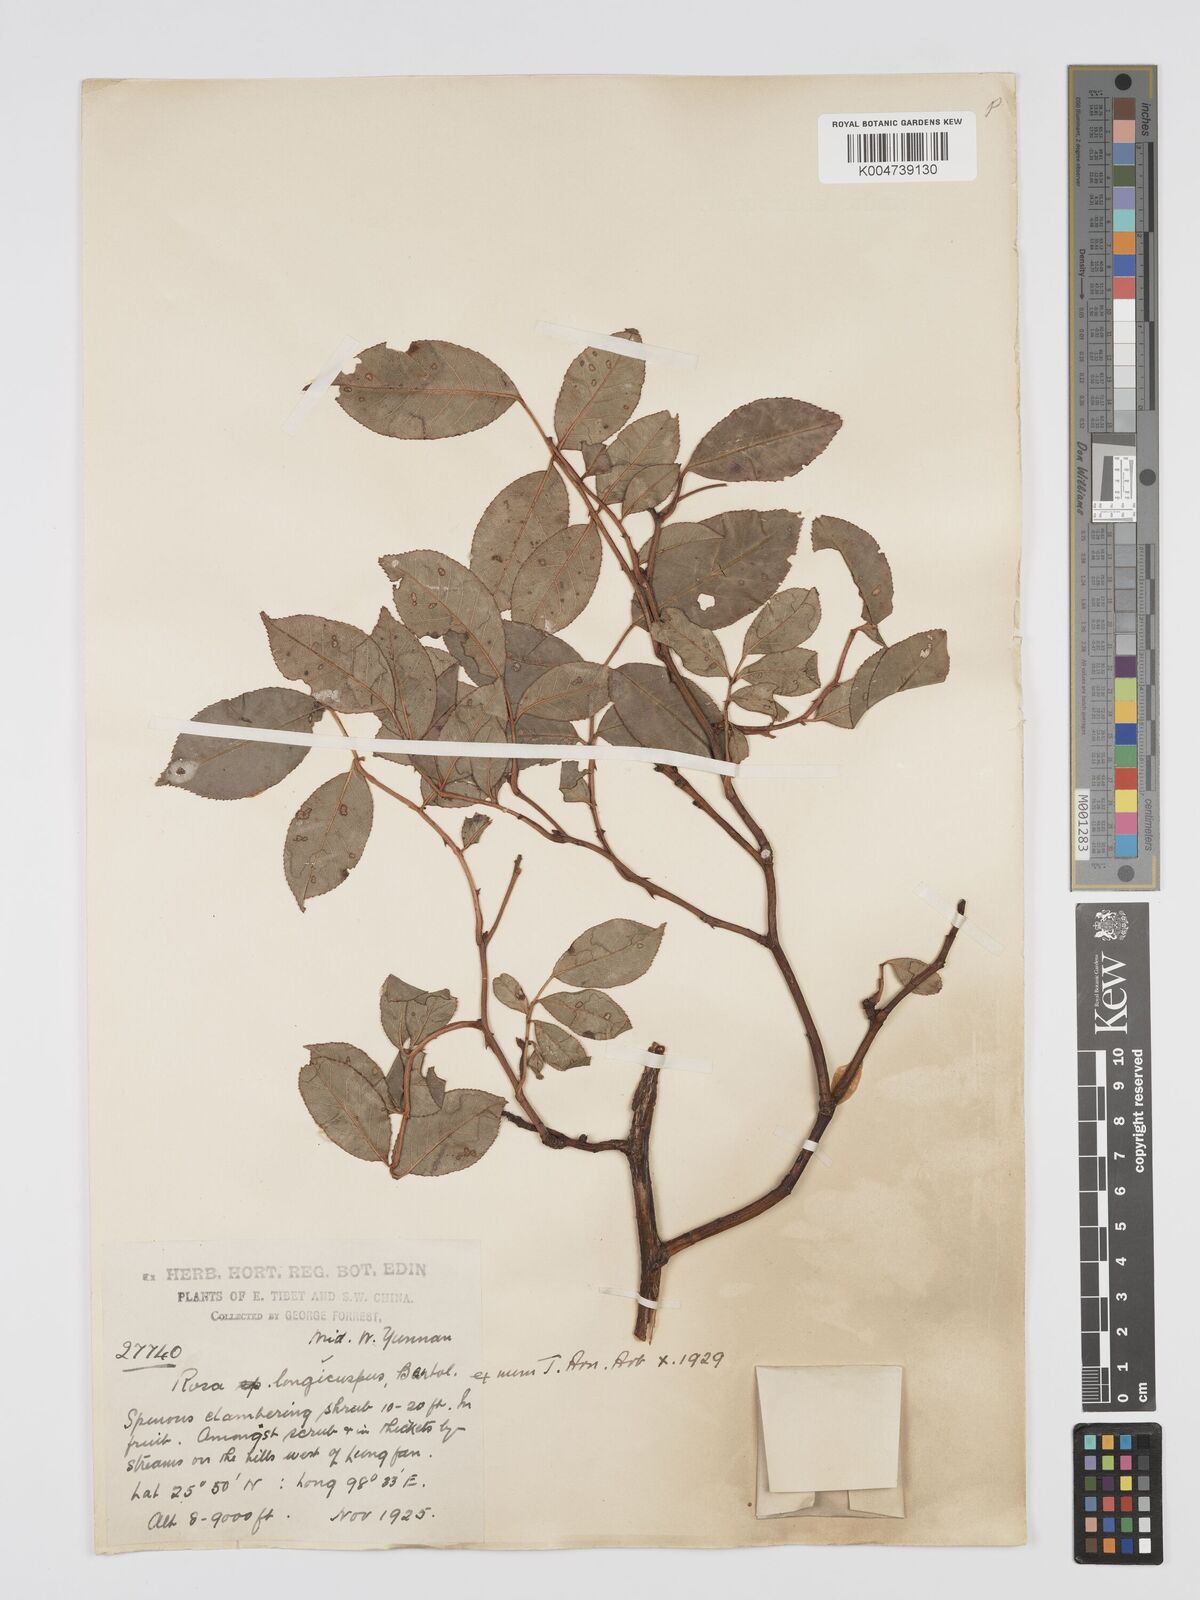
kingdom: Plantae
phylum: Tracheophyta
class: Magnoliopsida
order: Rosales
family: Rosaceae
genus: Rosa
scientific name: Rosa longicuspis
